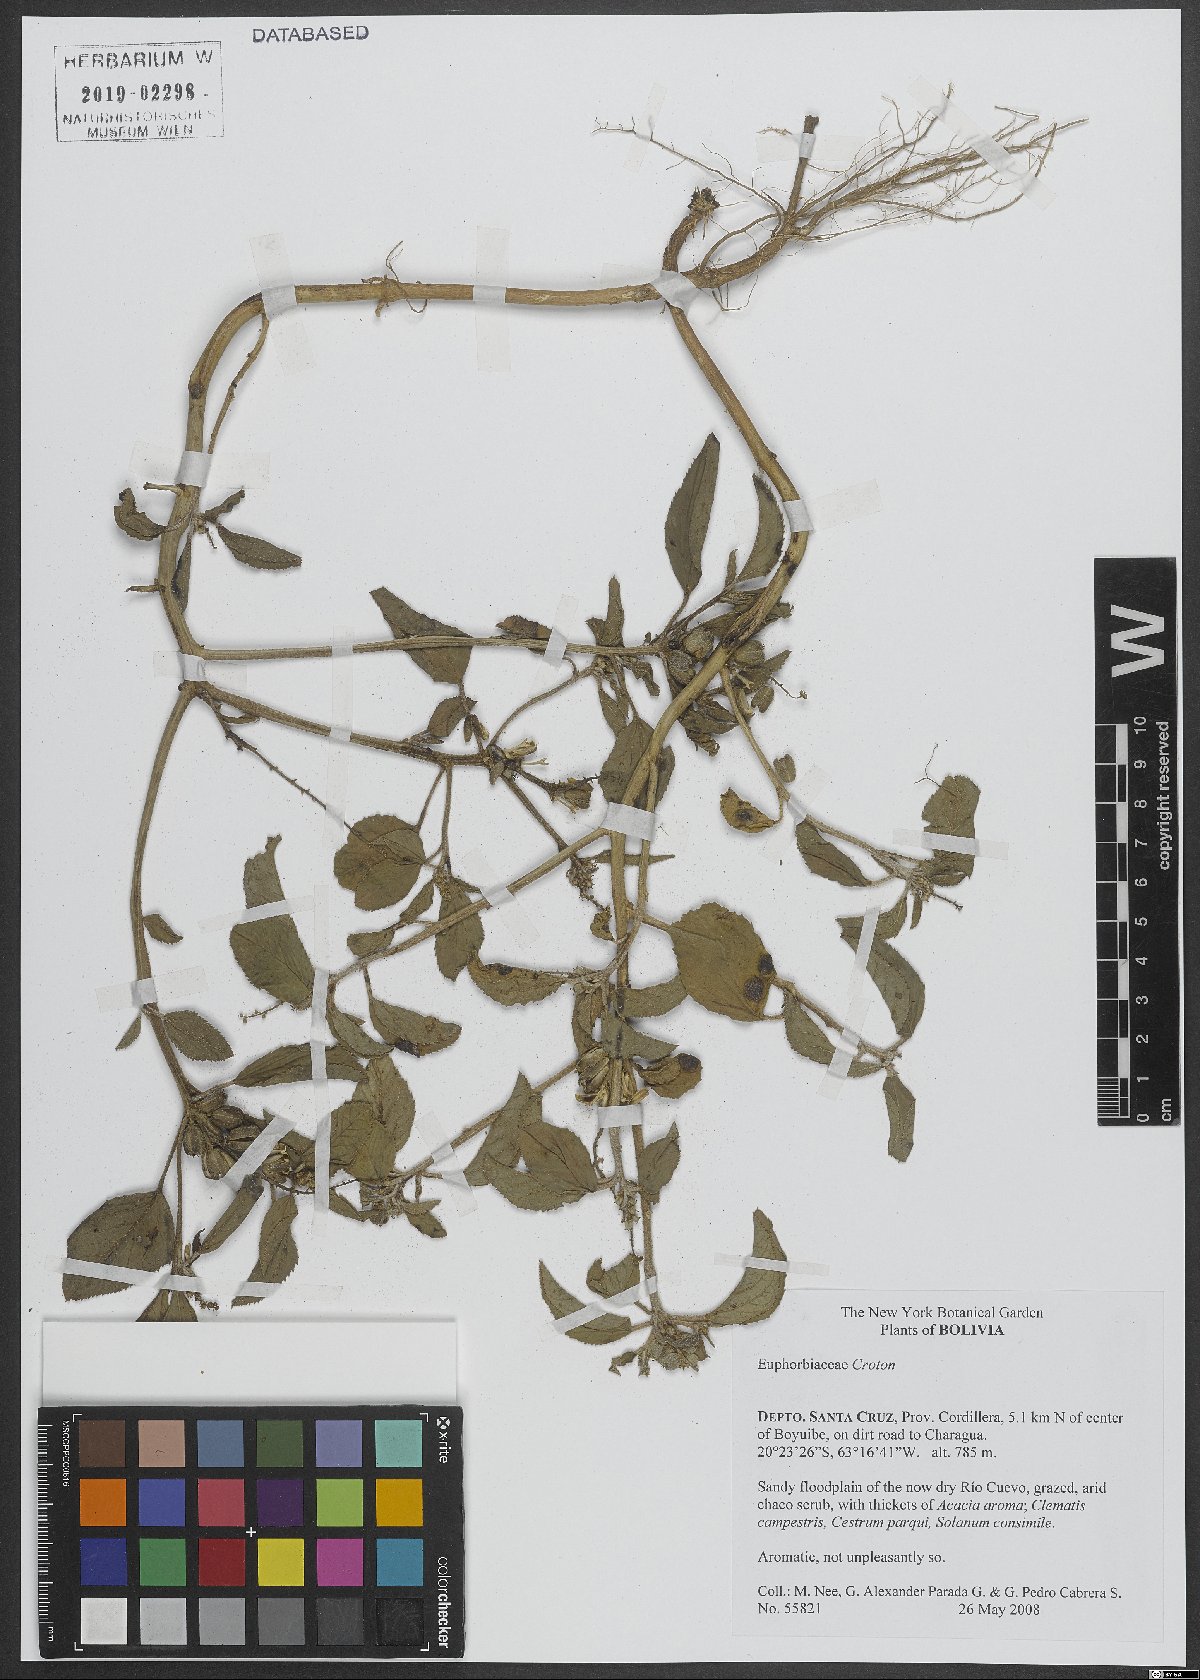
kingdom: Plantae
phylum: Tracheophyta
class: Magnoliopsida
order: Malpighiales
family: Euphorbiaceae
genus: Croton
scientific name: Croton
